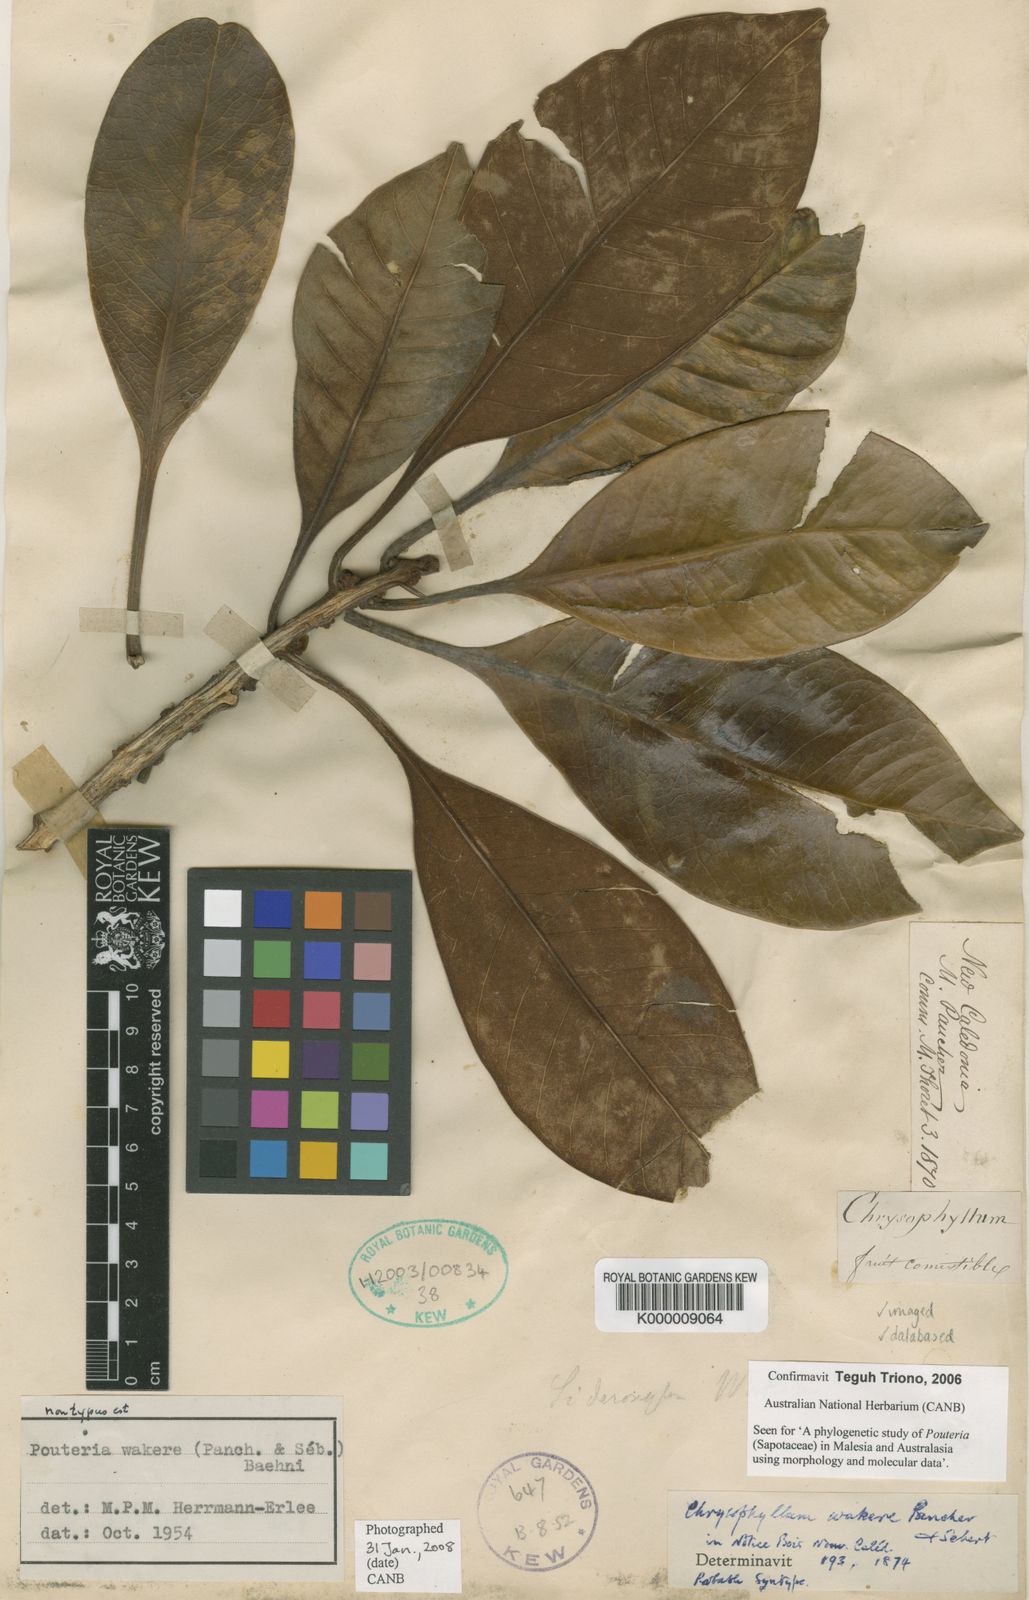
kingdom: Plantae
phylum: Tracheophyta
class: Magnoliopsida
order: Ericales
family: Sapotaceae
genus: Planchonella
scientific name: Planchonella wakere
